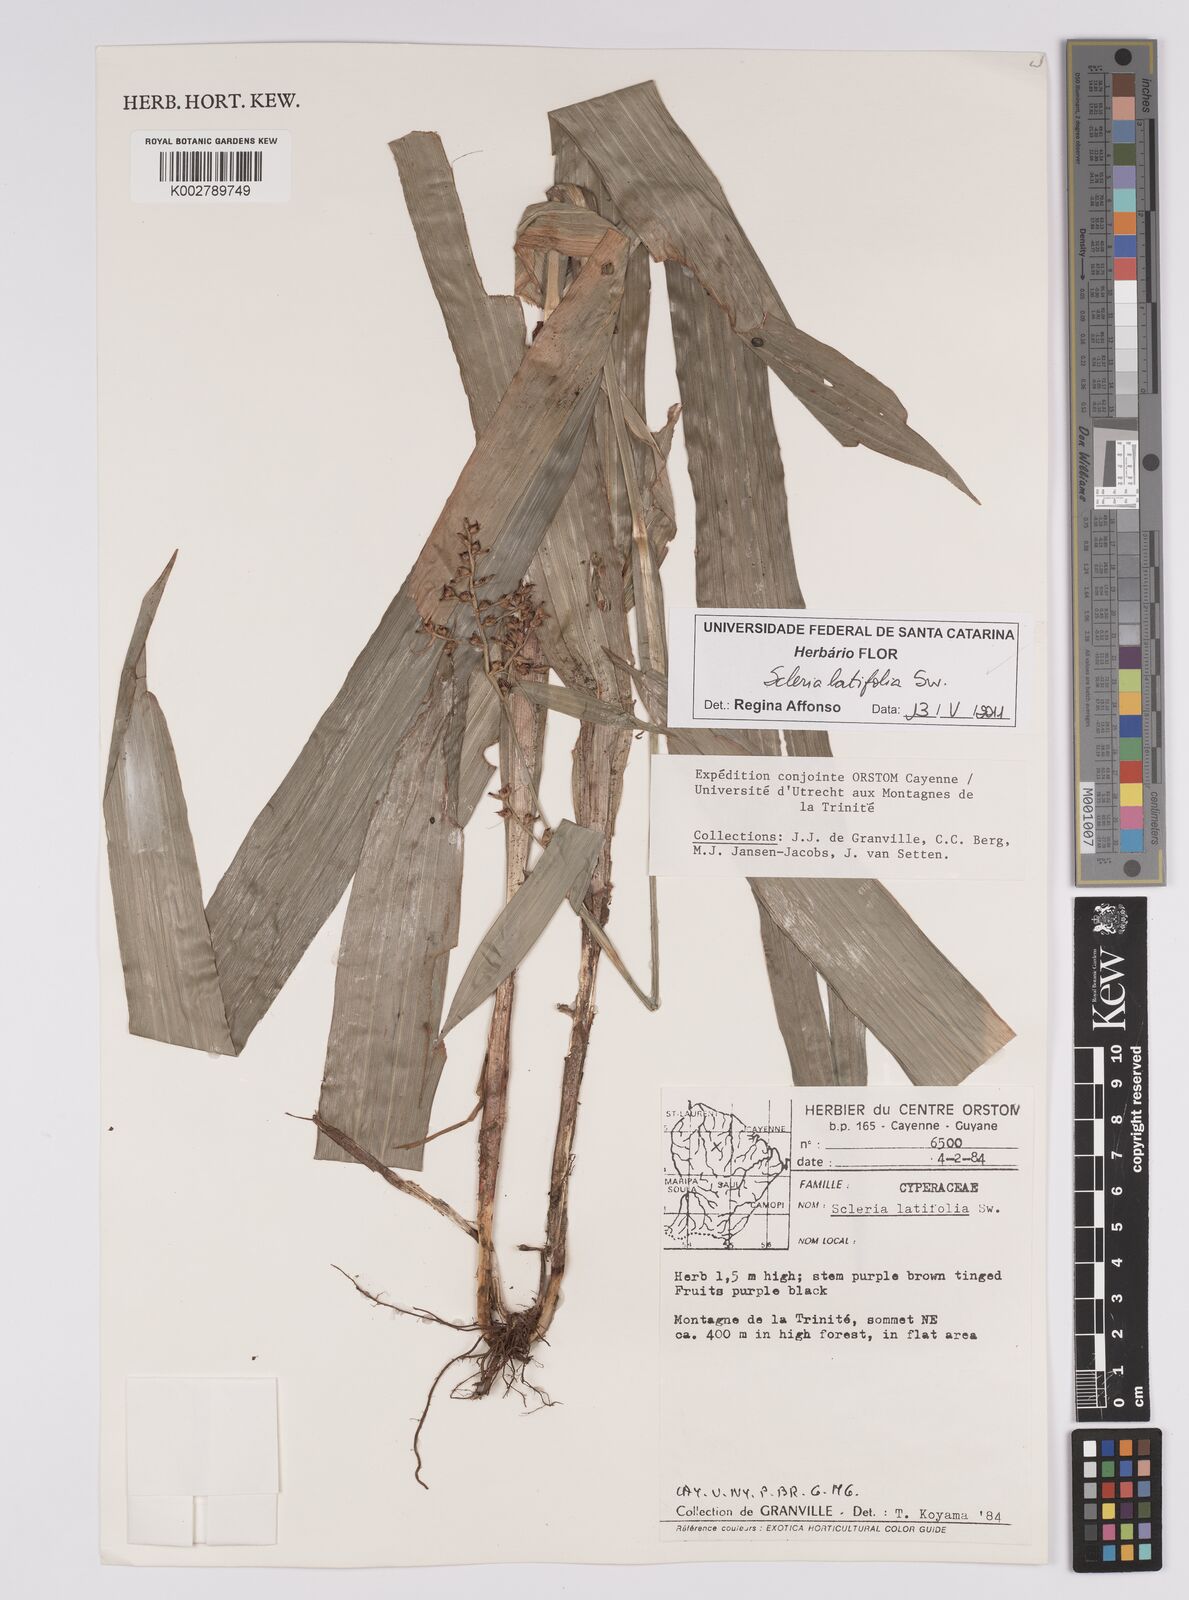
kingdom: Plantae
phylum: Tracheophyta
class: Liliopsida
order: Poales
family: Cyperaceae
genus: Scleria
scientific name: Scleria latifolia
